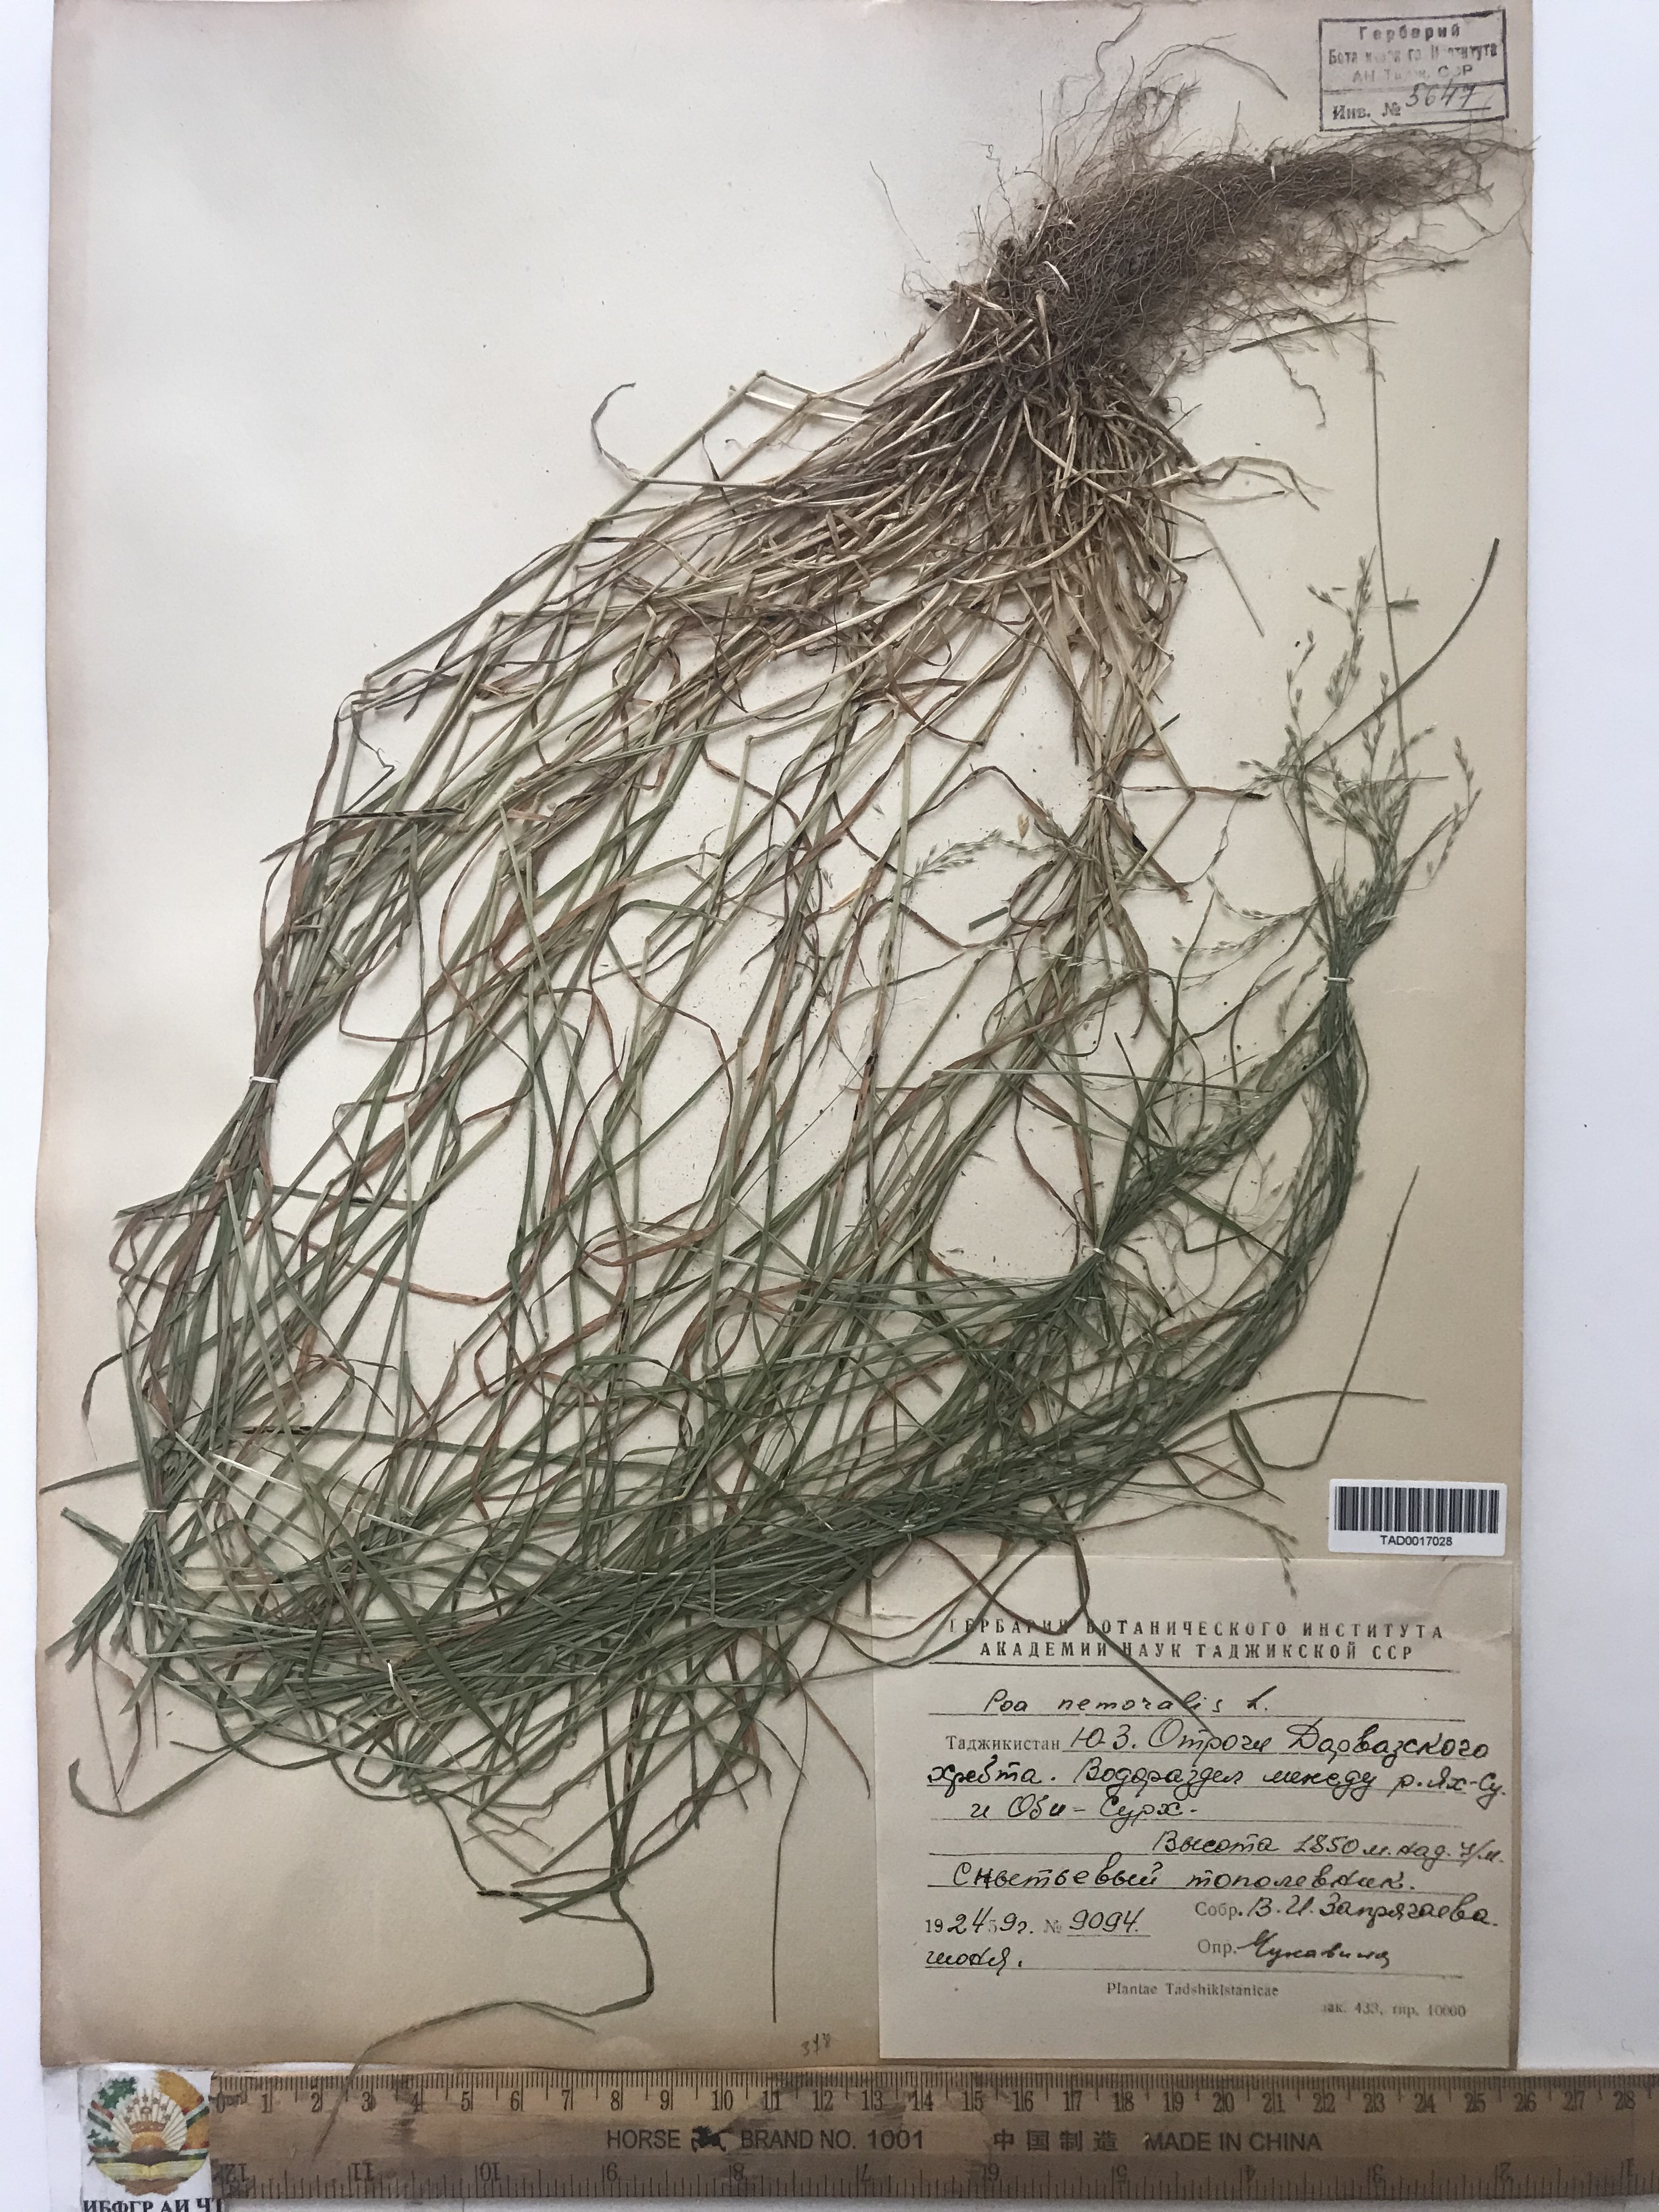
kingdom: Plantae
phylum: Tracheophyta
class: Liliopsida
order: Poales
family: Poaceae
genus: Poa
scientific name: Poa nemoralis
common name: Wood bluegrass
